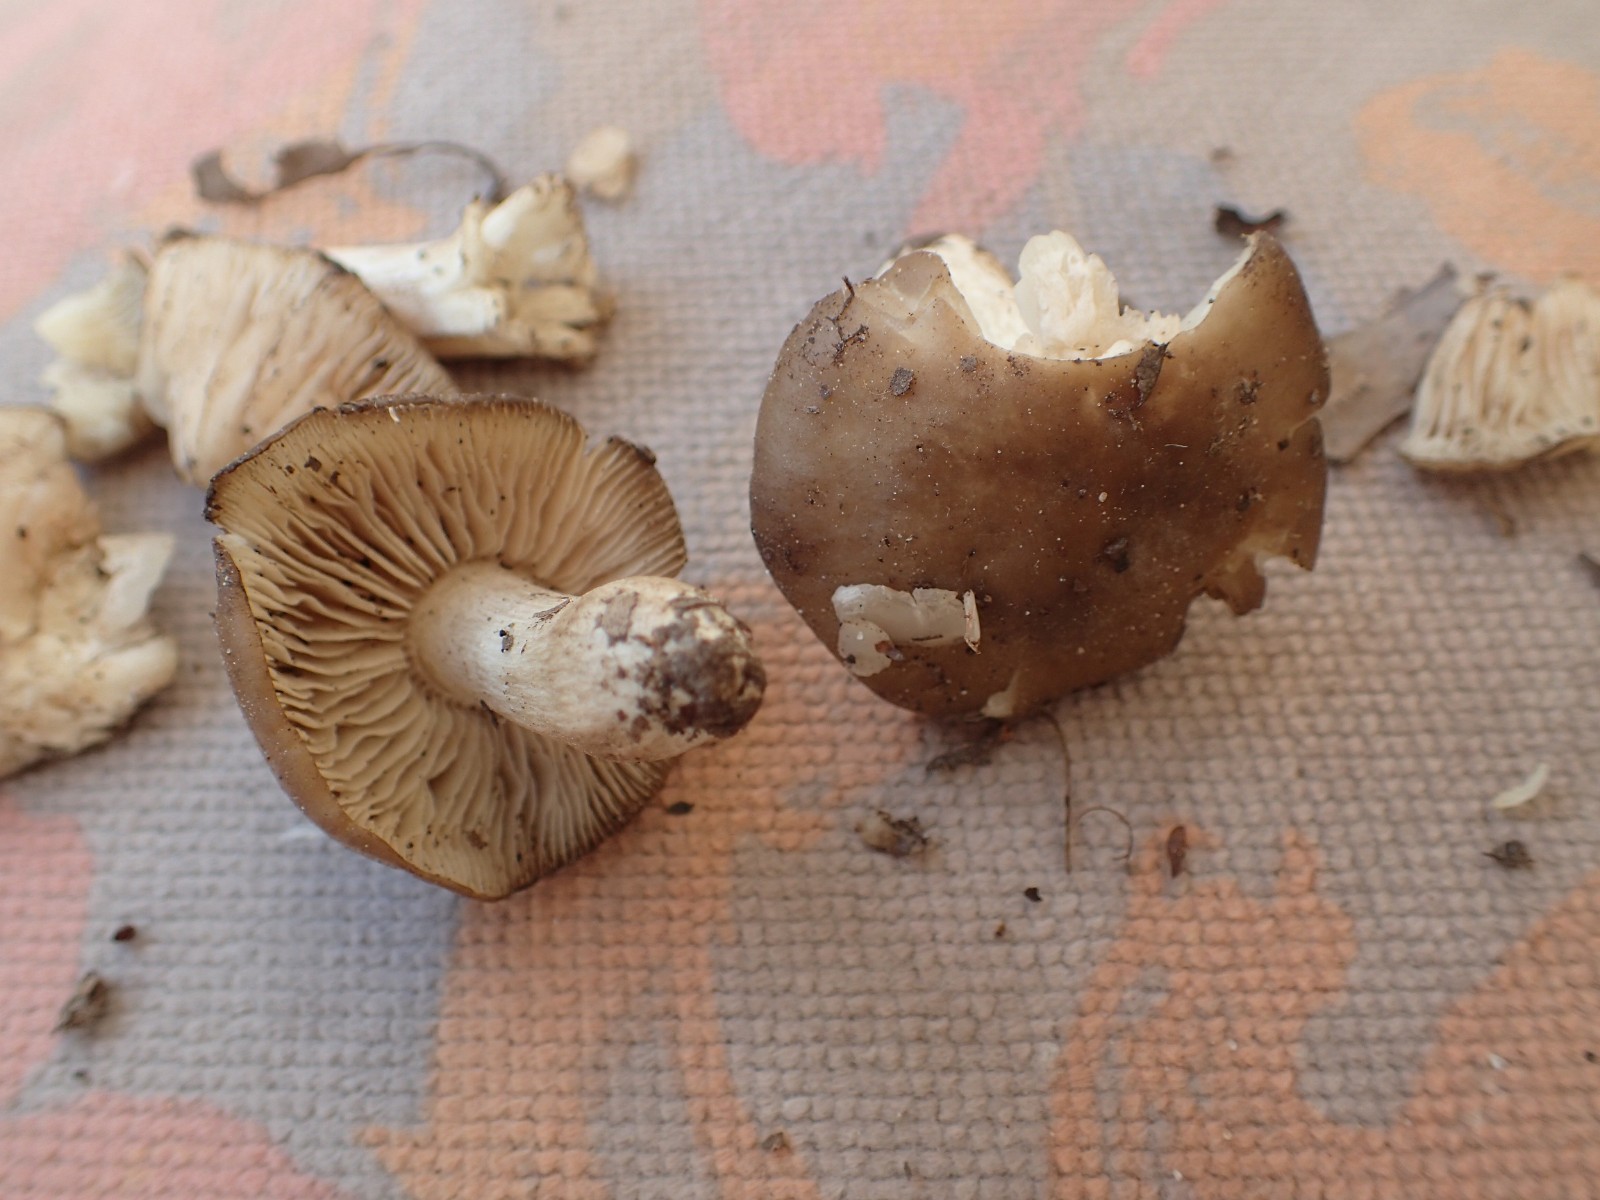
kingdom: Fungi
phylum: Basidiomycota
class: Agaricomycetes
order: Agaricales
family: Entolomataceae
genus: Entoloma
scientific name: Entoloma lividoalbum
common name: lysstokket rødblad
